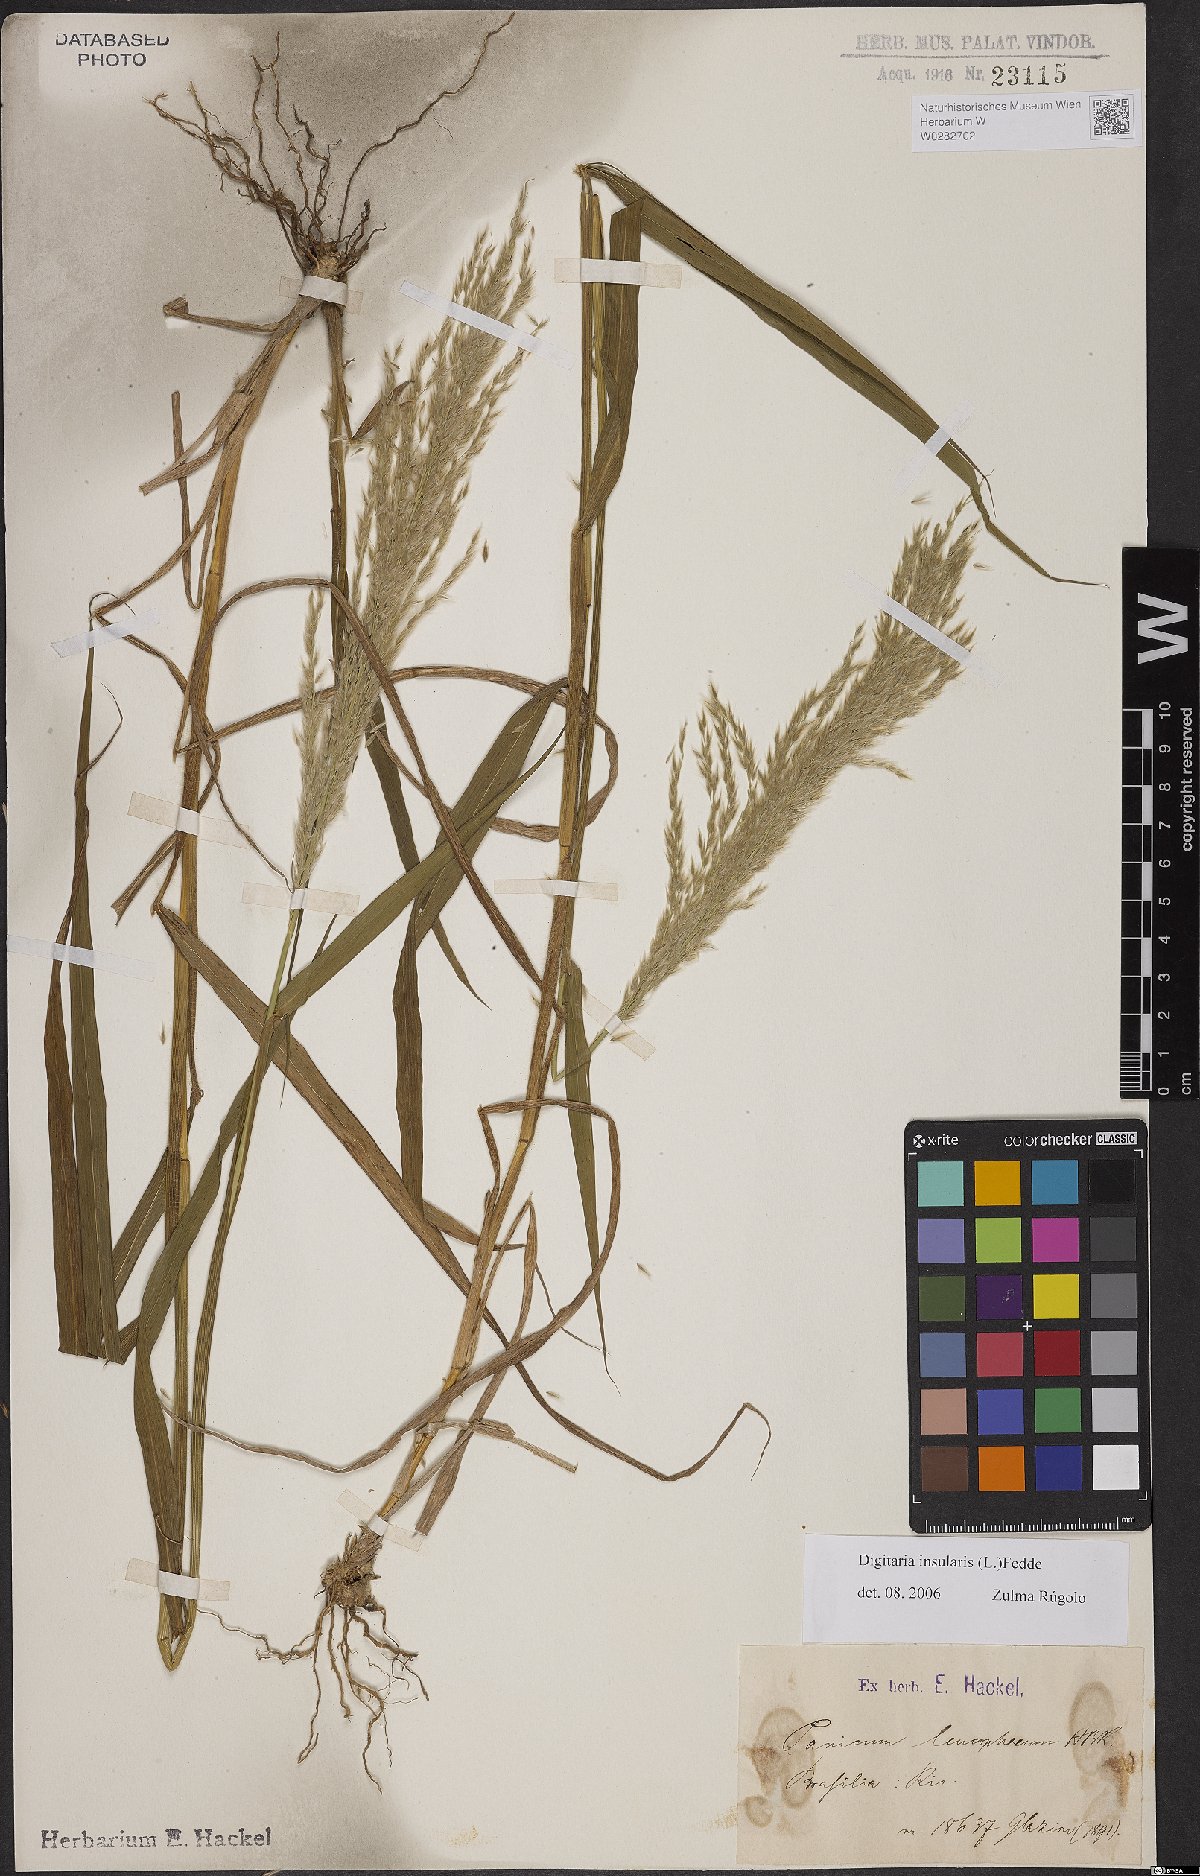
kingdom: Plantae
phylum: Tracheophyta
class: Liliopsida
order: Poales
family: Poaceae
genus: Digitaria
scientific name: Digitaria insularis
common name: Sourgrass
